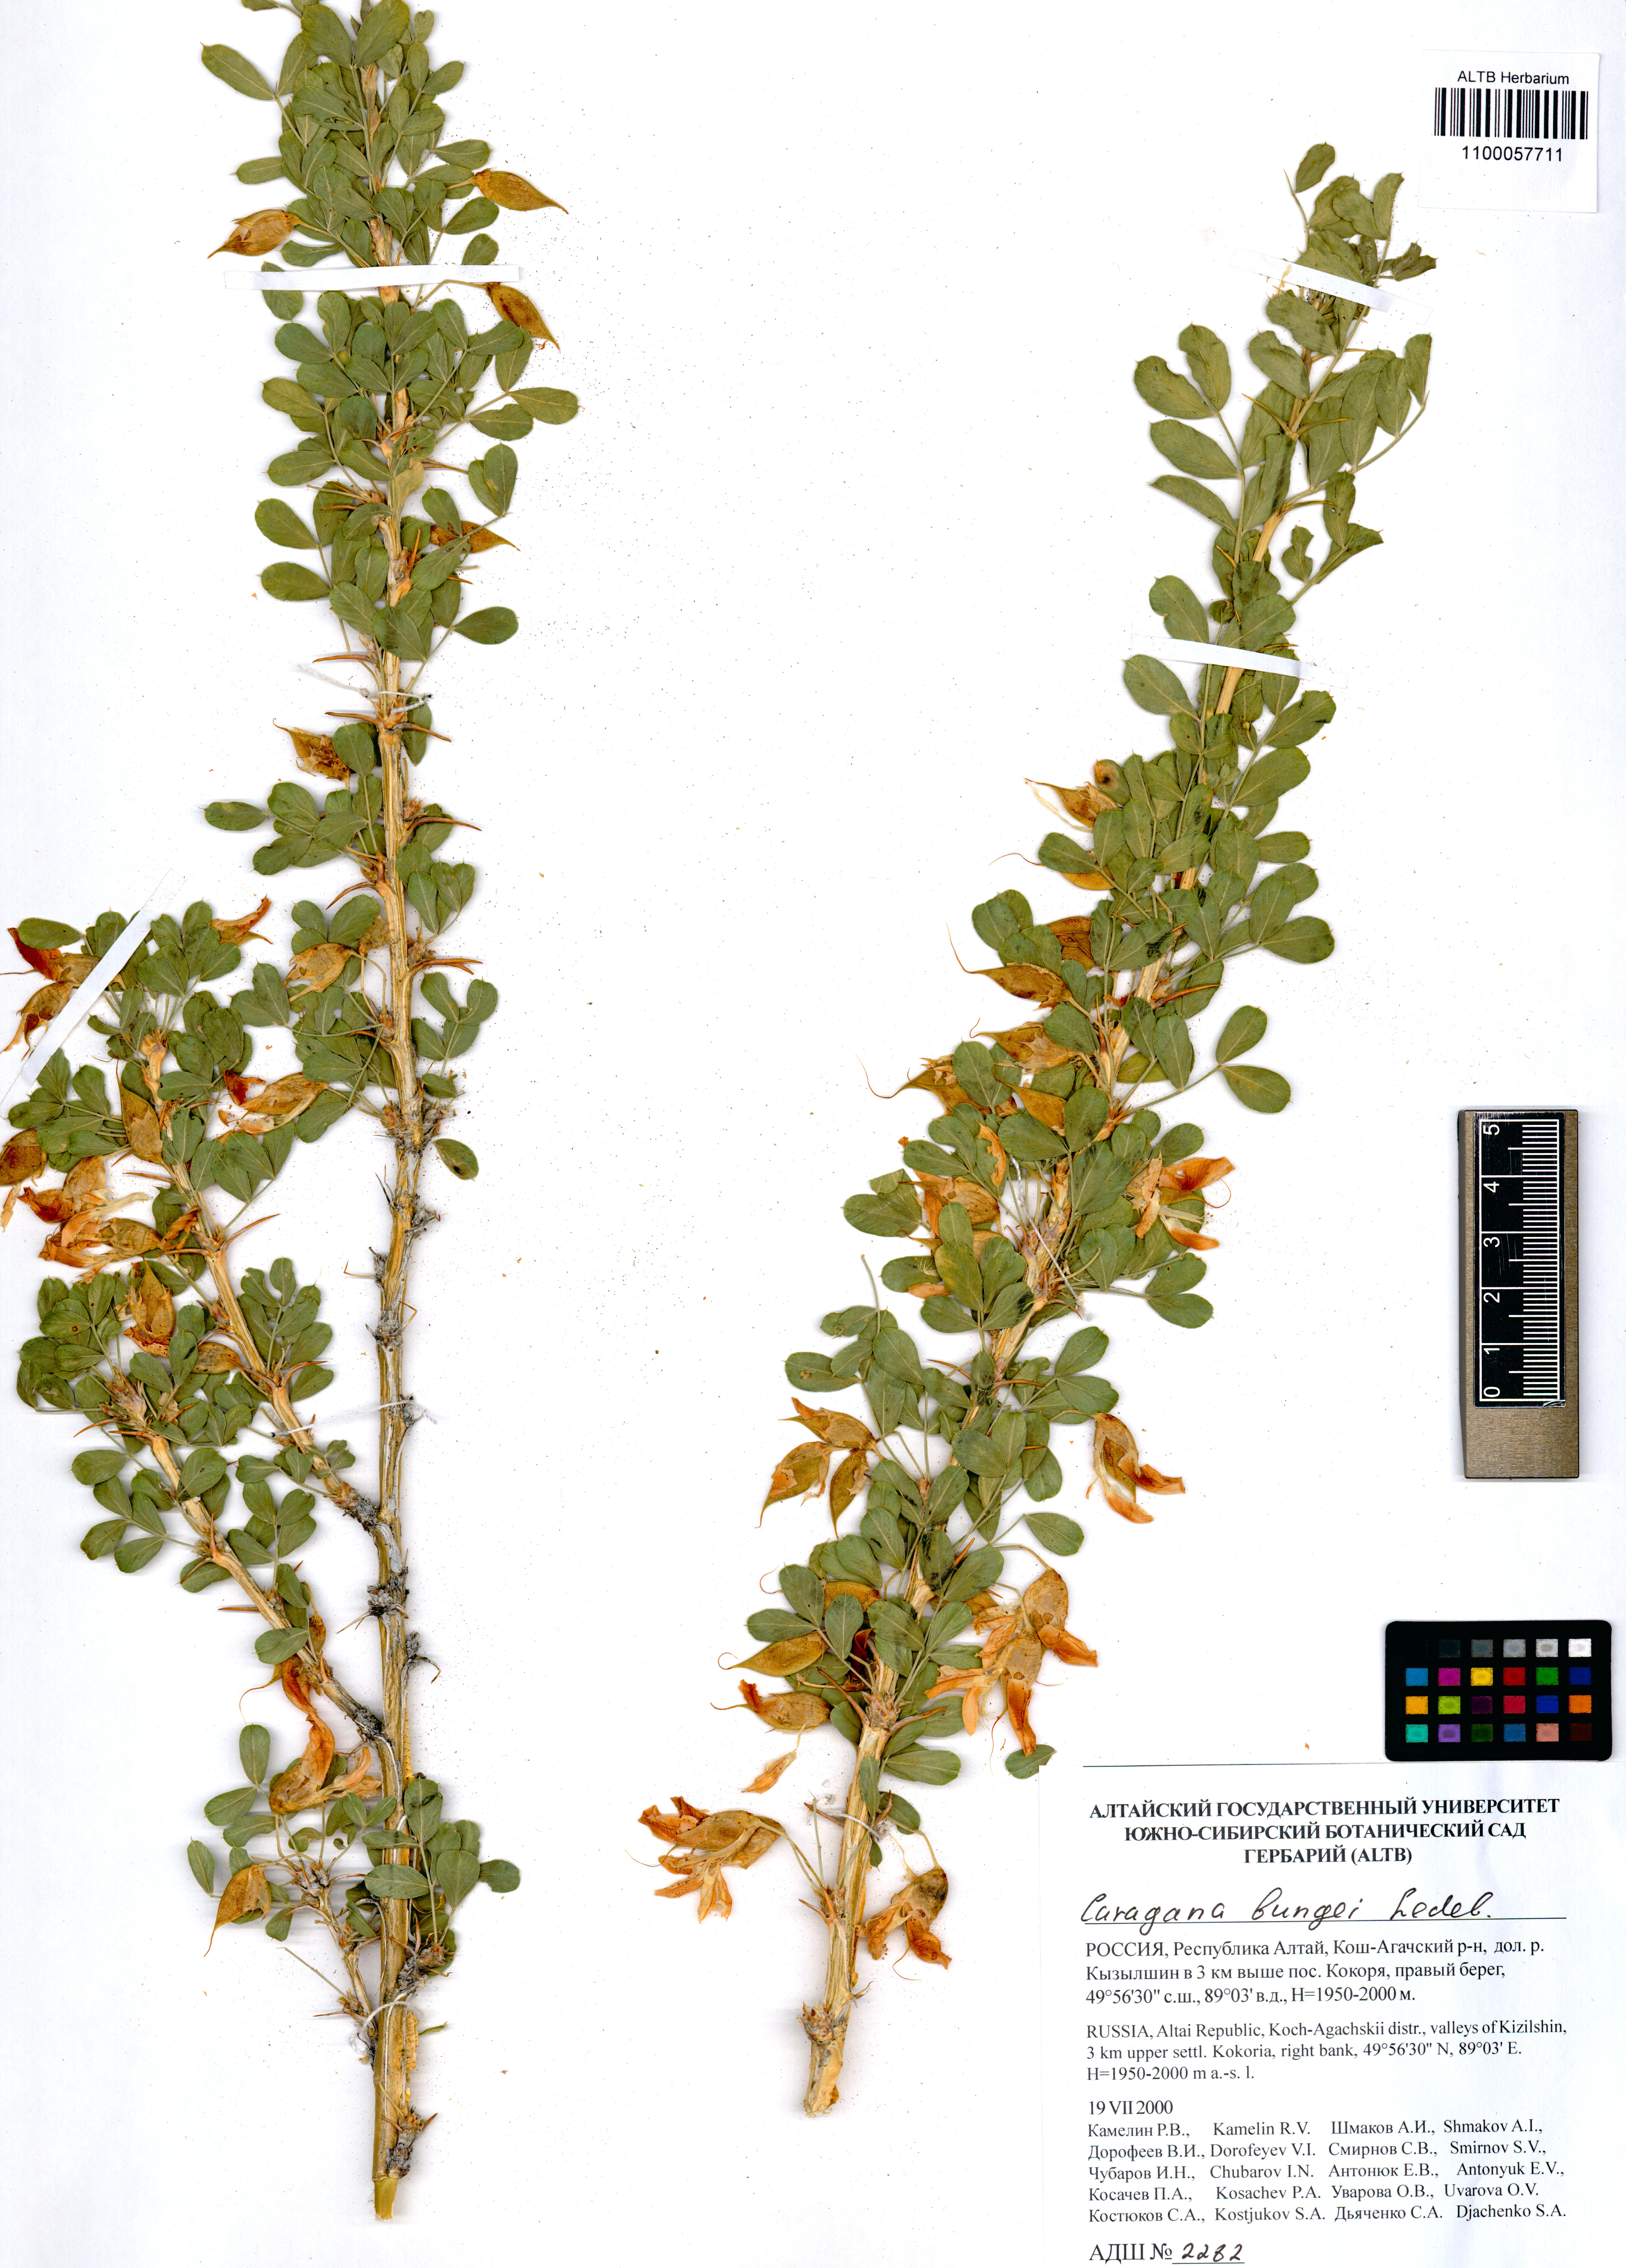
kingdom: Plantae
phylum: Tracheophyta
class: Magnoliopsida
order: Fabales
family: Fabaceae
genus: Caragana
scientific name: Caragana bungei
